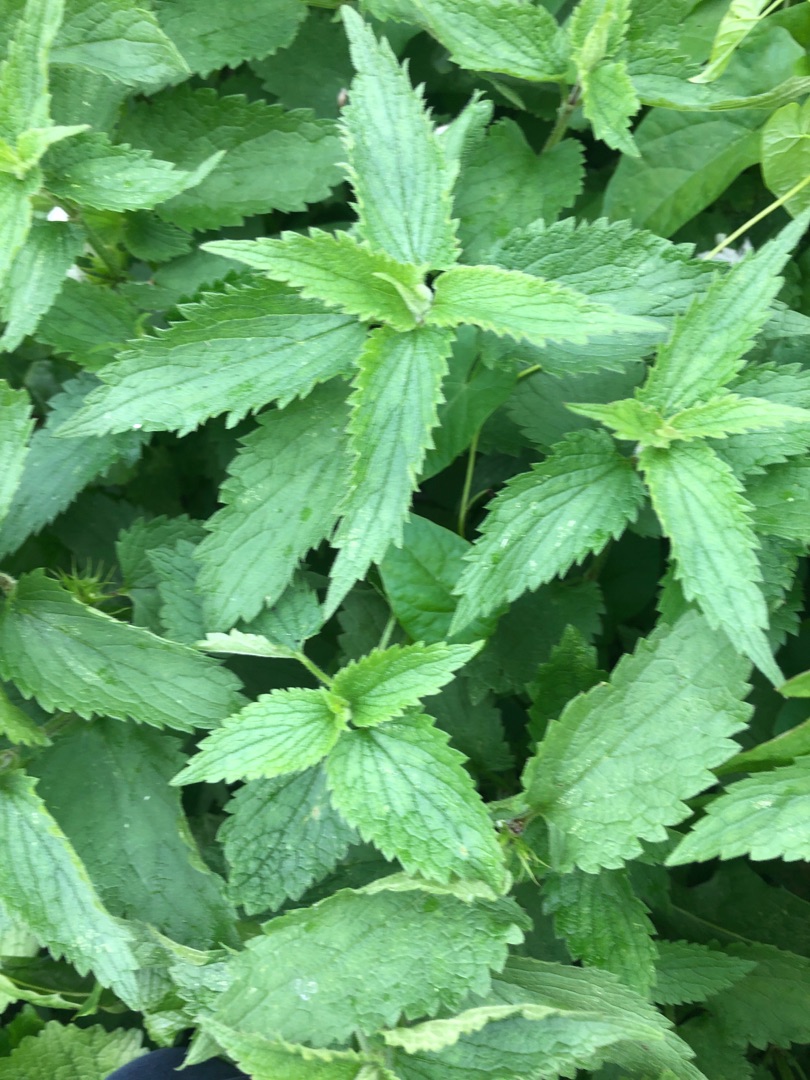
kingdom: Plantae
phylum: Tracheophyta
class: Magnoliopsida
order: Lamiales
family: Lamiaceae
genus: Lamium
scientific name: Lamium album
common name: Døvnælde
